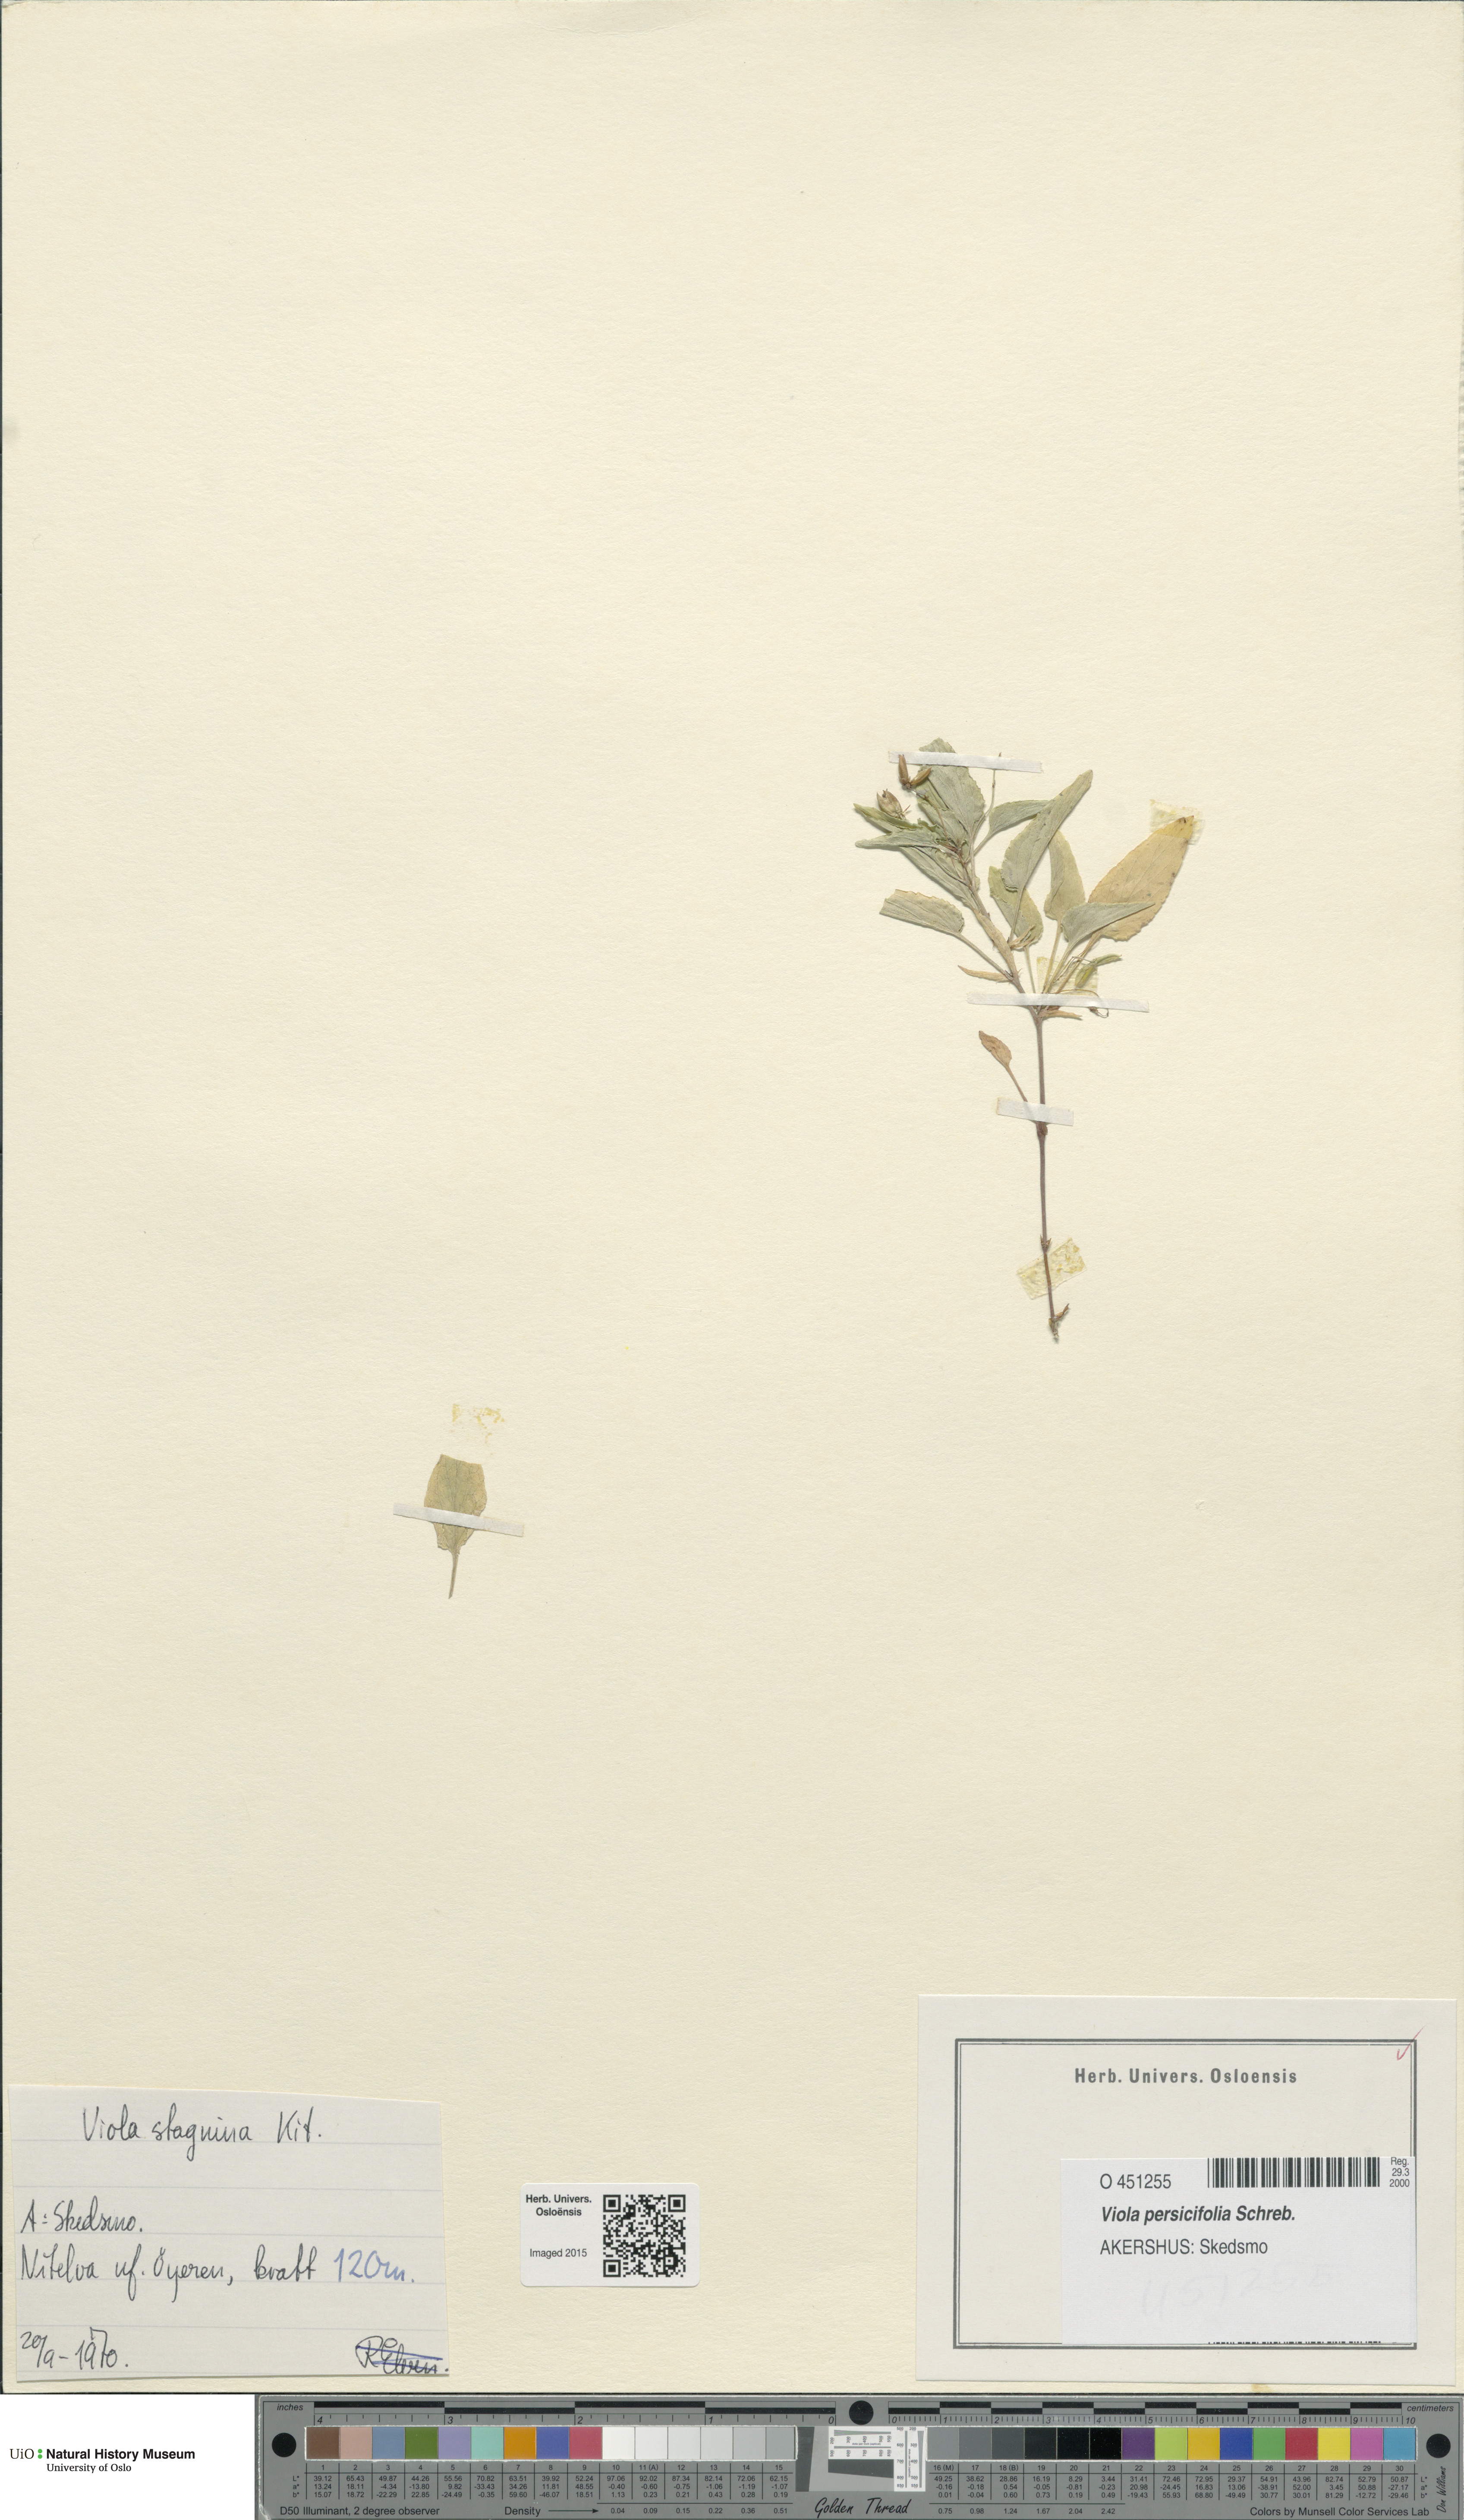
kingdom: Plantae
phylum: Tracheophyta
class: Magnoliopsida
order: Malpighiales
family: Violaceae
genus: Viola
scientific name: Viola stagnina
